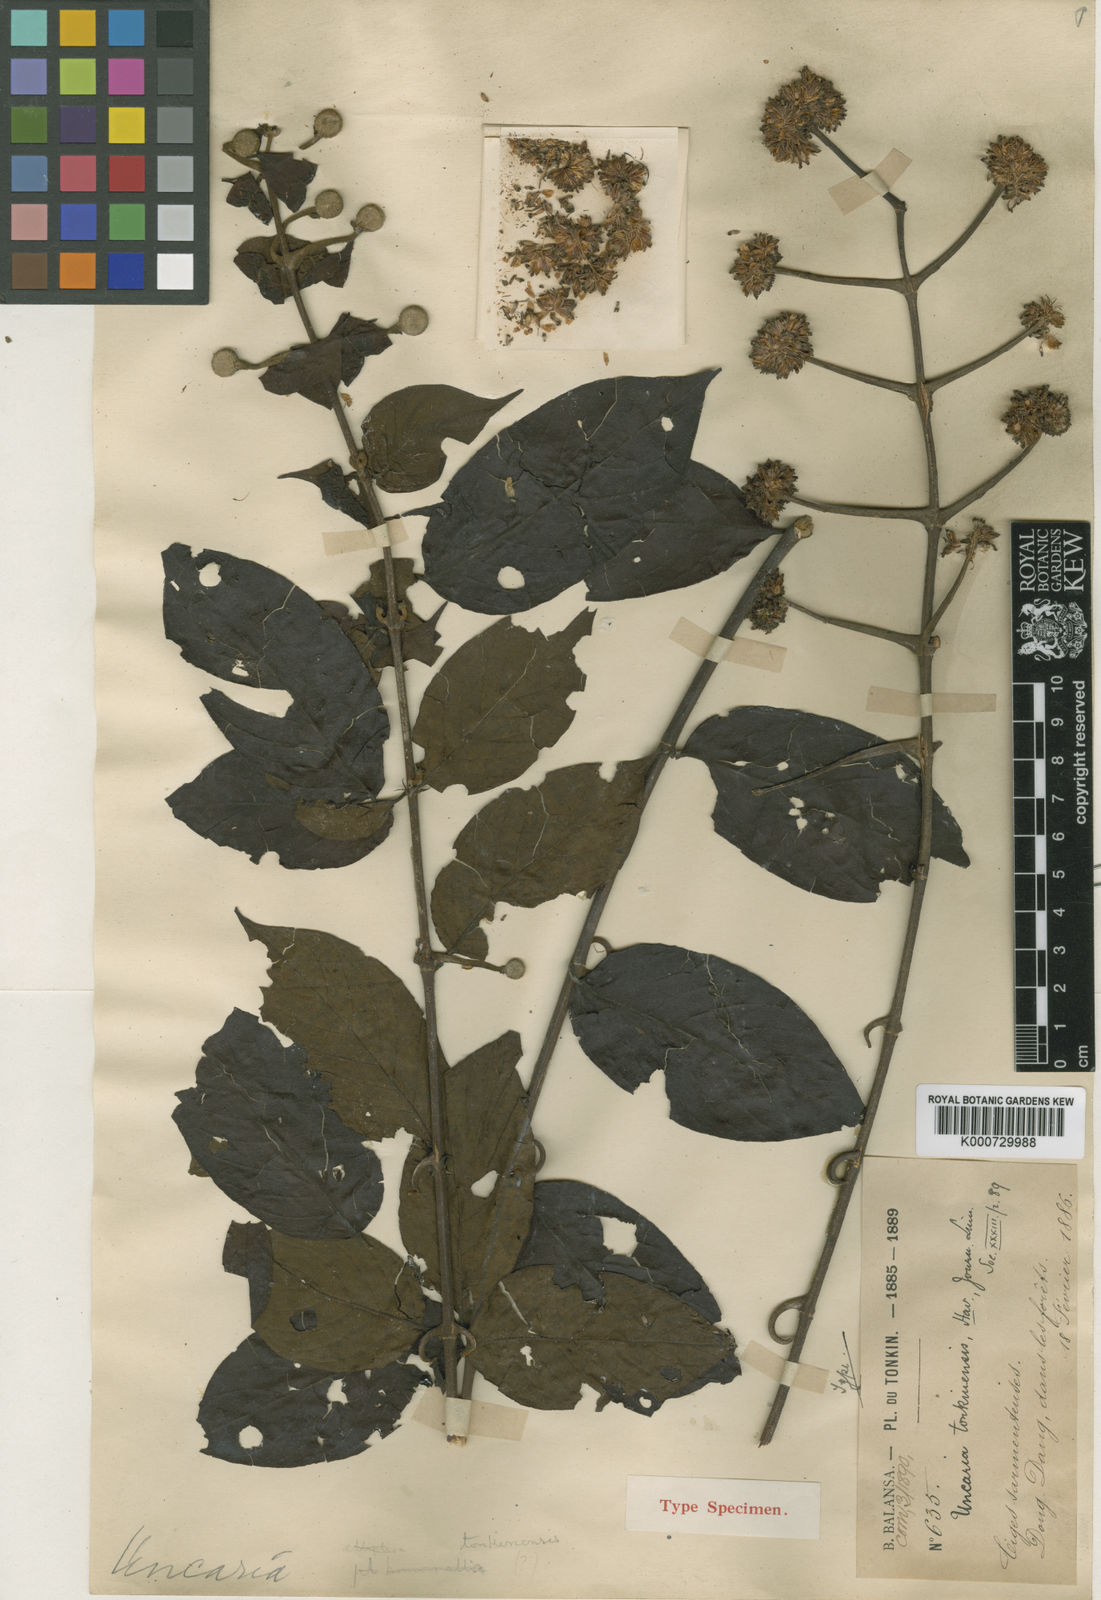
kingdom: Plantae
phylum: Tracheophyta
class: Magnoliopsida
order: Gentianales
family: Rubiaceae
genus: Uncaria
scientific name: Uncaria homomalla
